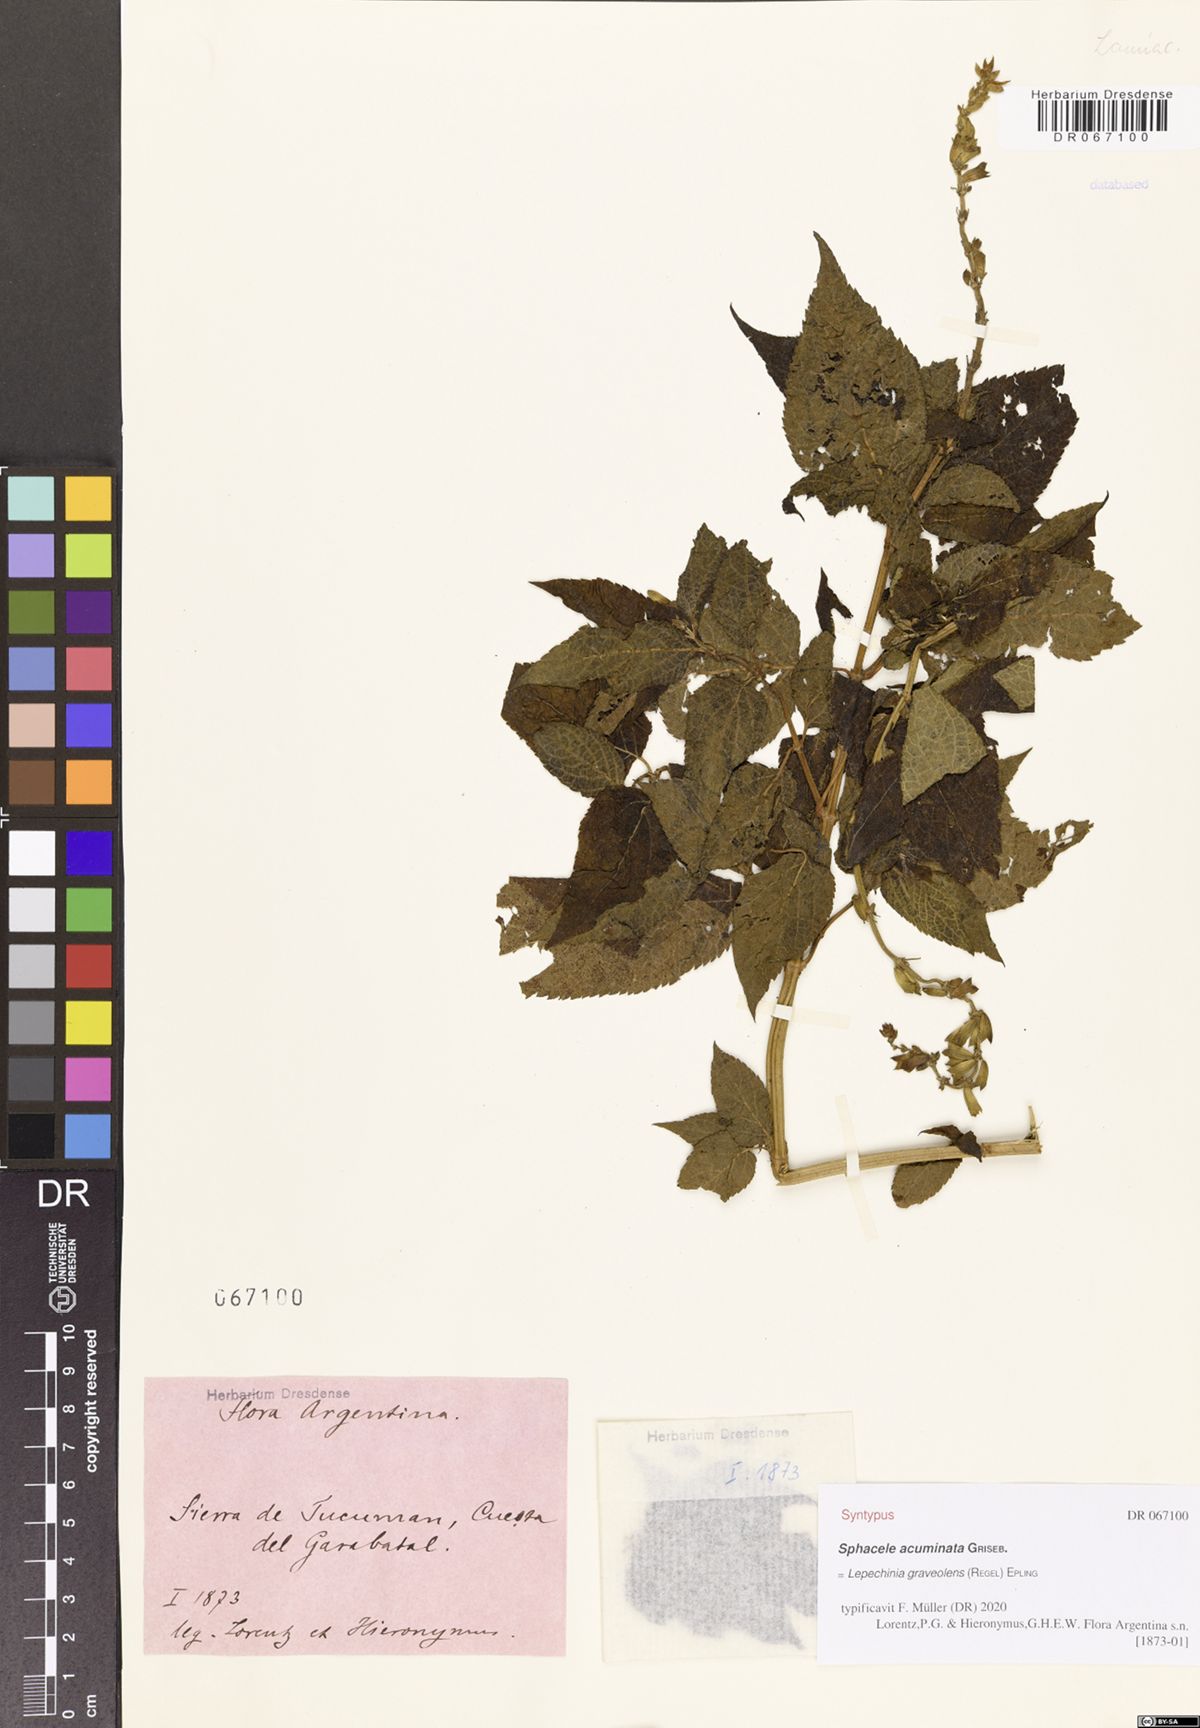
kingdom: Plantae
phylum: Tracheophyta
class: Magnoliopsida
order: Lamiales
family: Lamiaceae
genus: Lepechinia
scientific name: Lepechinia graveolens
